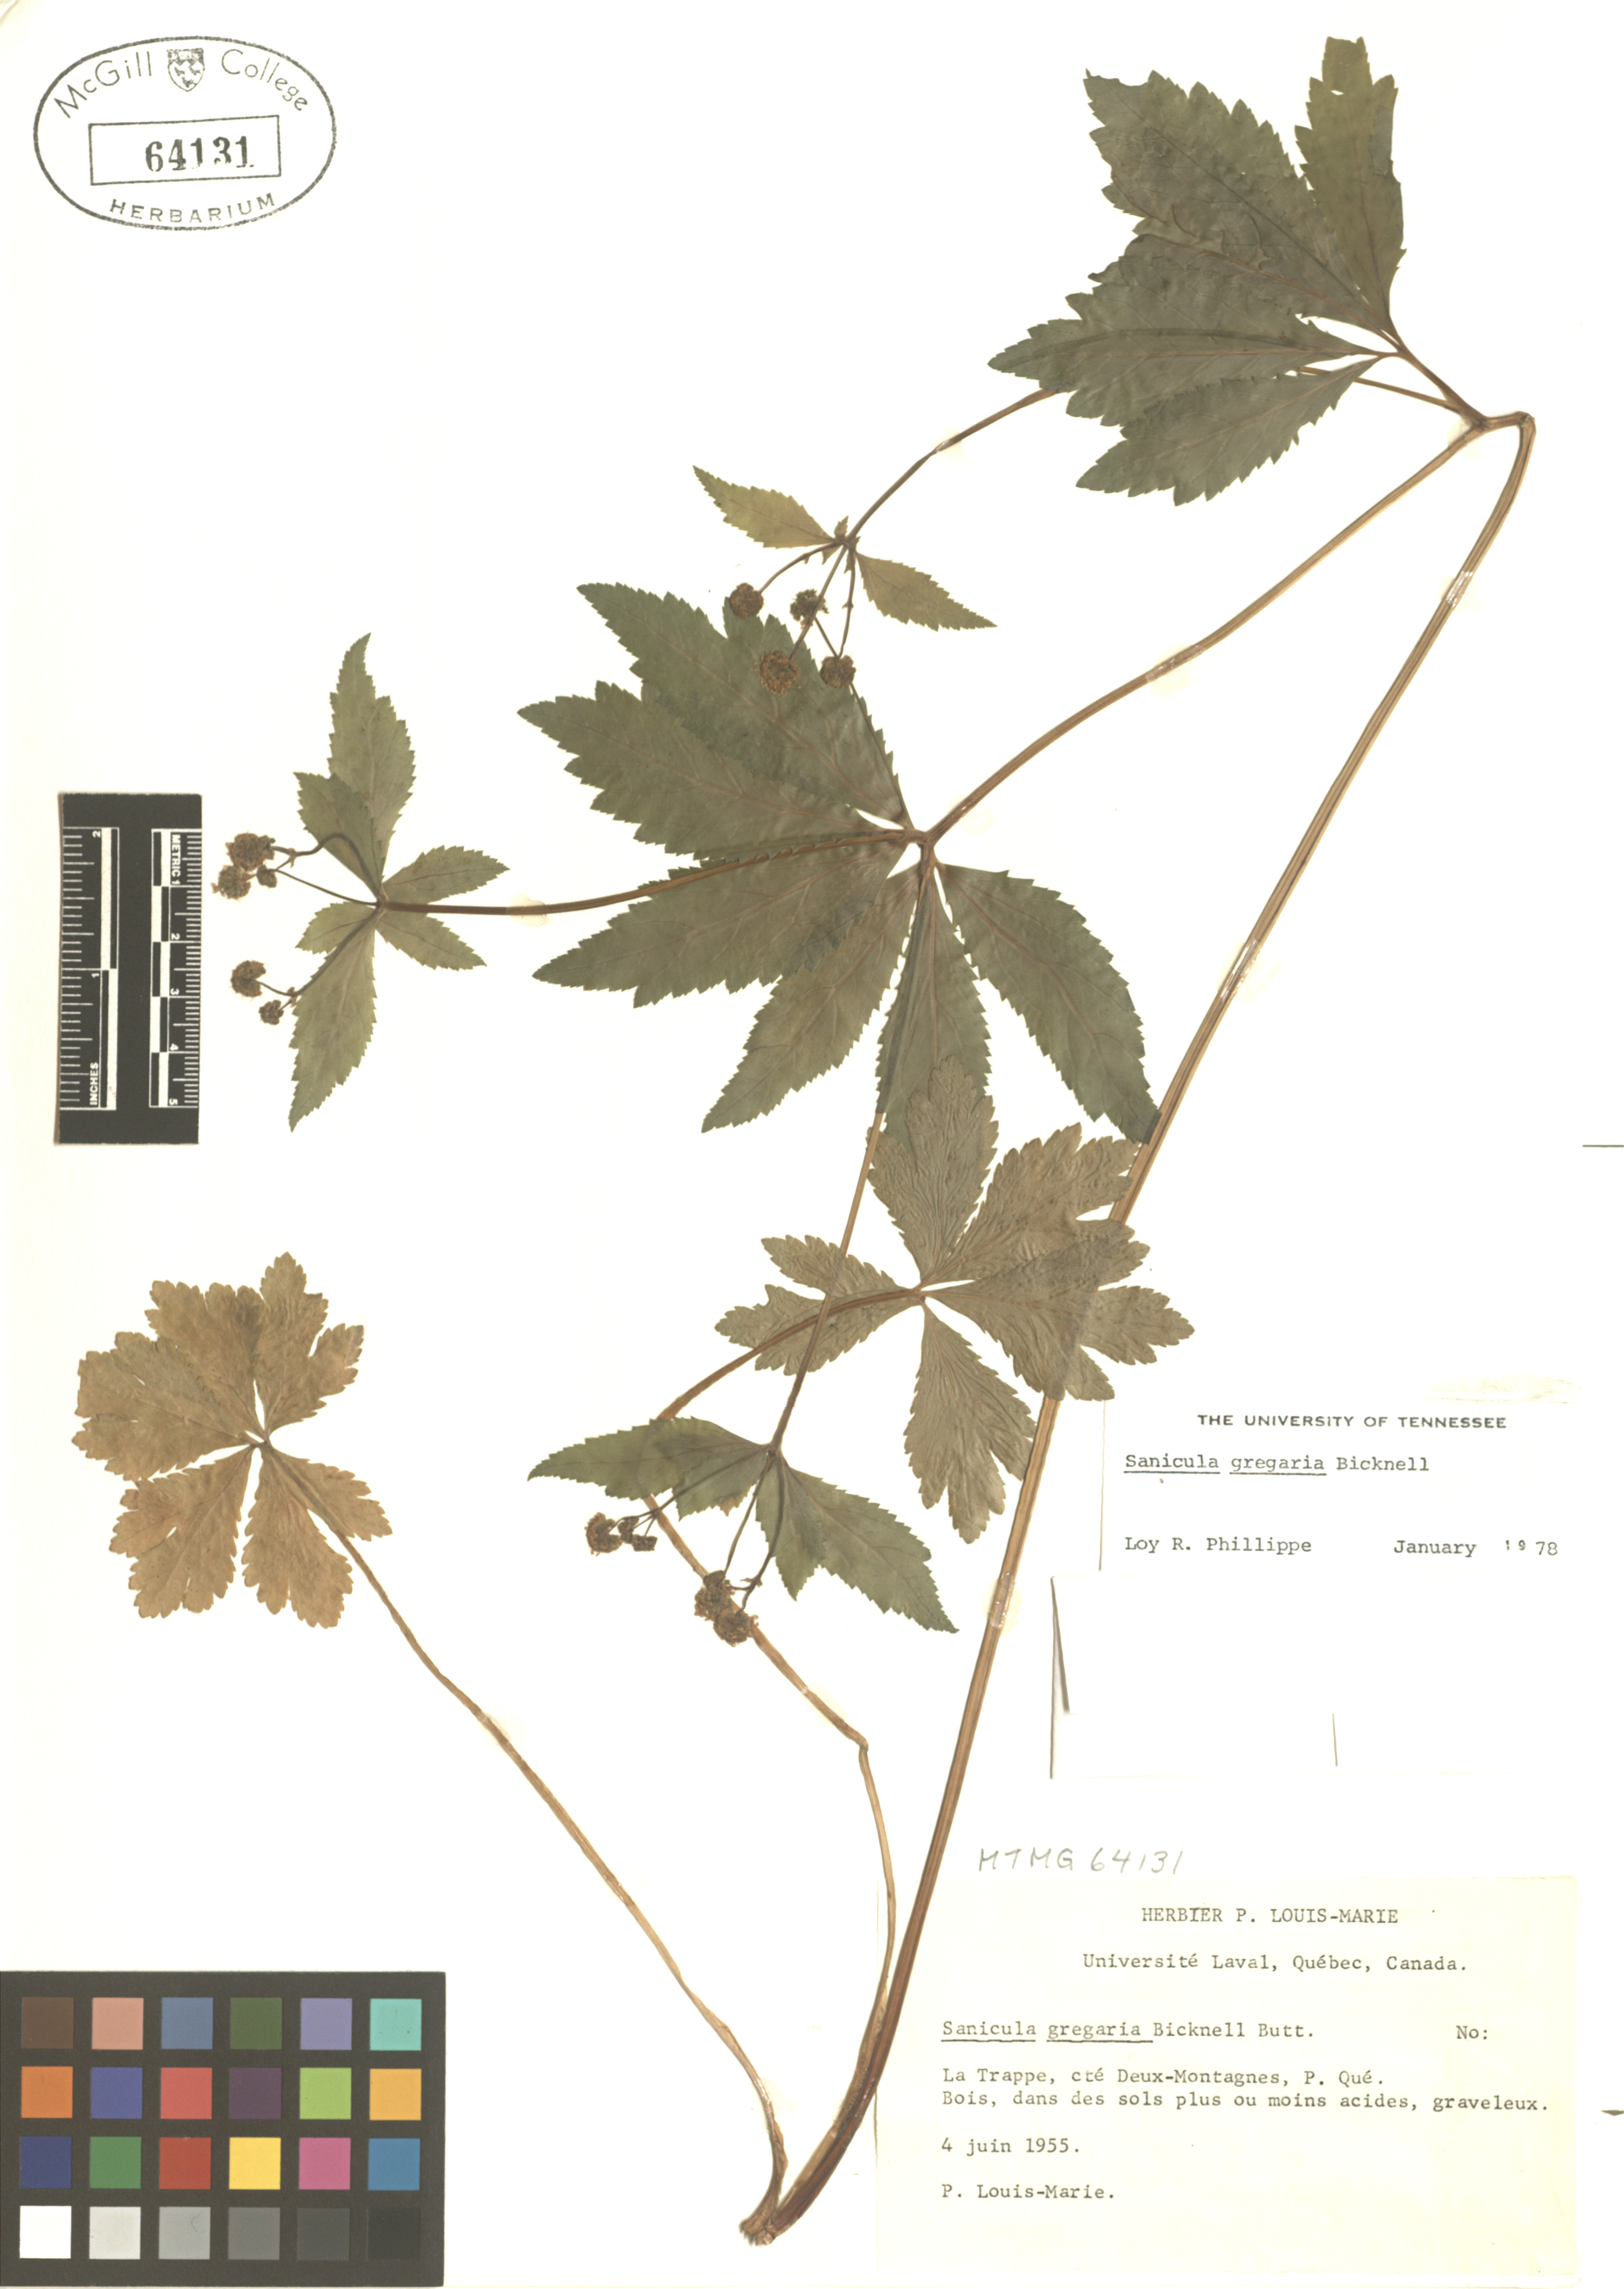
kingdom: Plantae
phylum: Tracheophyta
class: Magnoliopsida
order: Apiales
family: Apiaceae
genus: Sanicula
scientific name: Sanicula odorata
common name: Cluster sanicle
